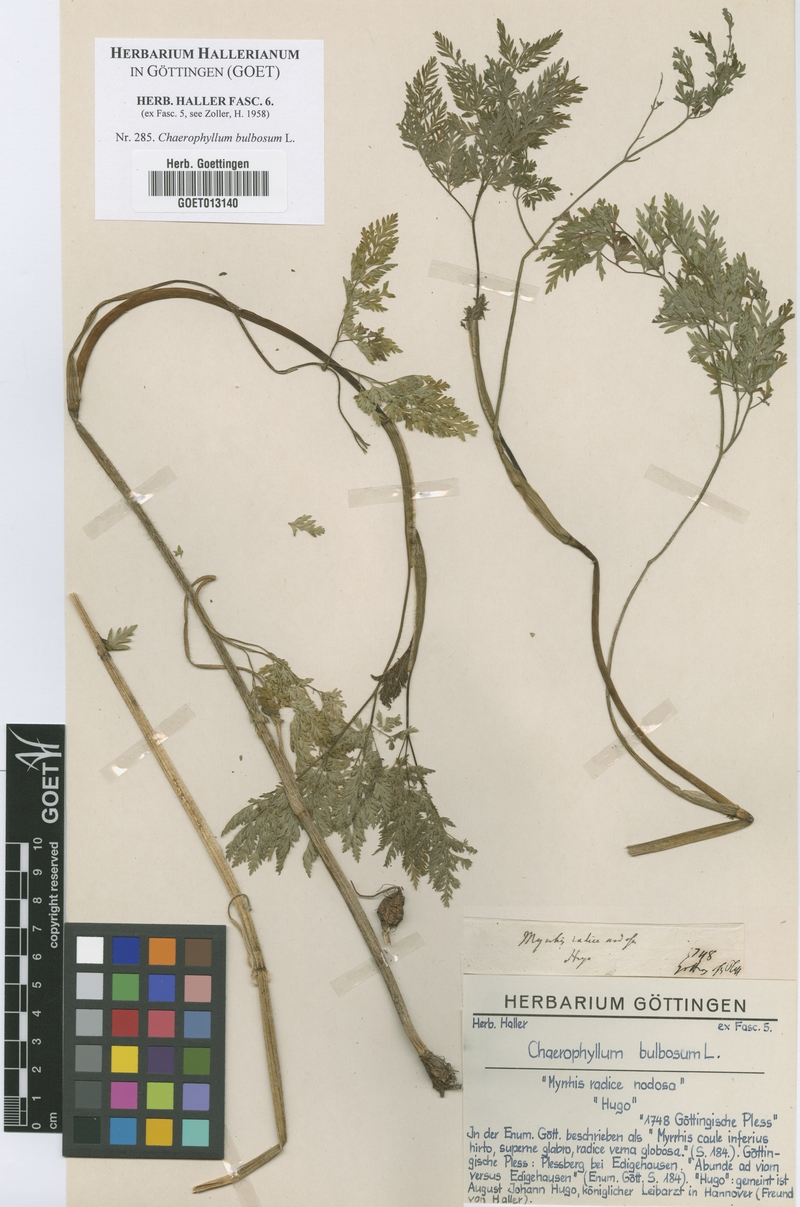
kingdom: Plantae
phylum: Tracheophyta
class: Magnoliopsida
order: Apiales
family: Apiaceae
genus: Chaerophyllum
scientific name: Chaerophyllum bulbosum
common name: Bulbous chervil
